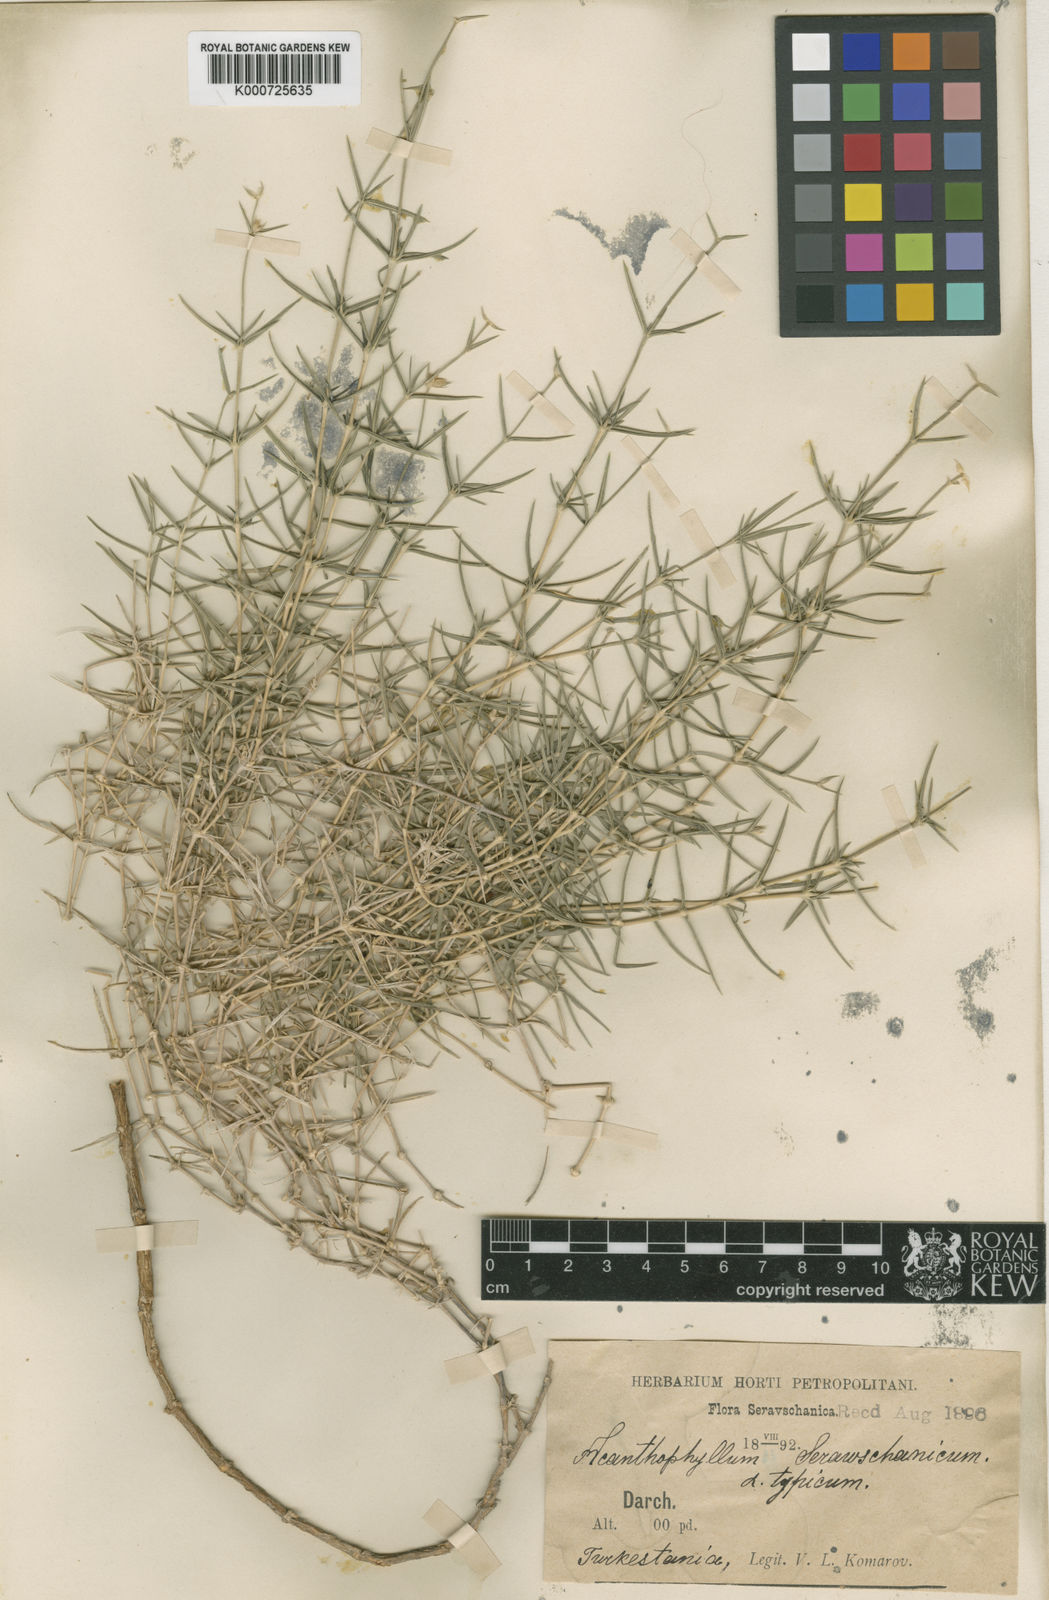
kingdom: Plantae
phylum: Tracheophyta
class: Magnoliopsida
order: Caryophyllales
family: Caryophyllaceae
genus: Acanthophyllum
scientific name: Acanthophyllum
